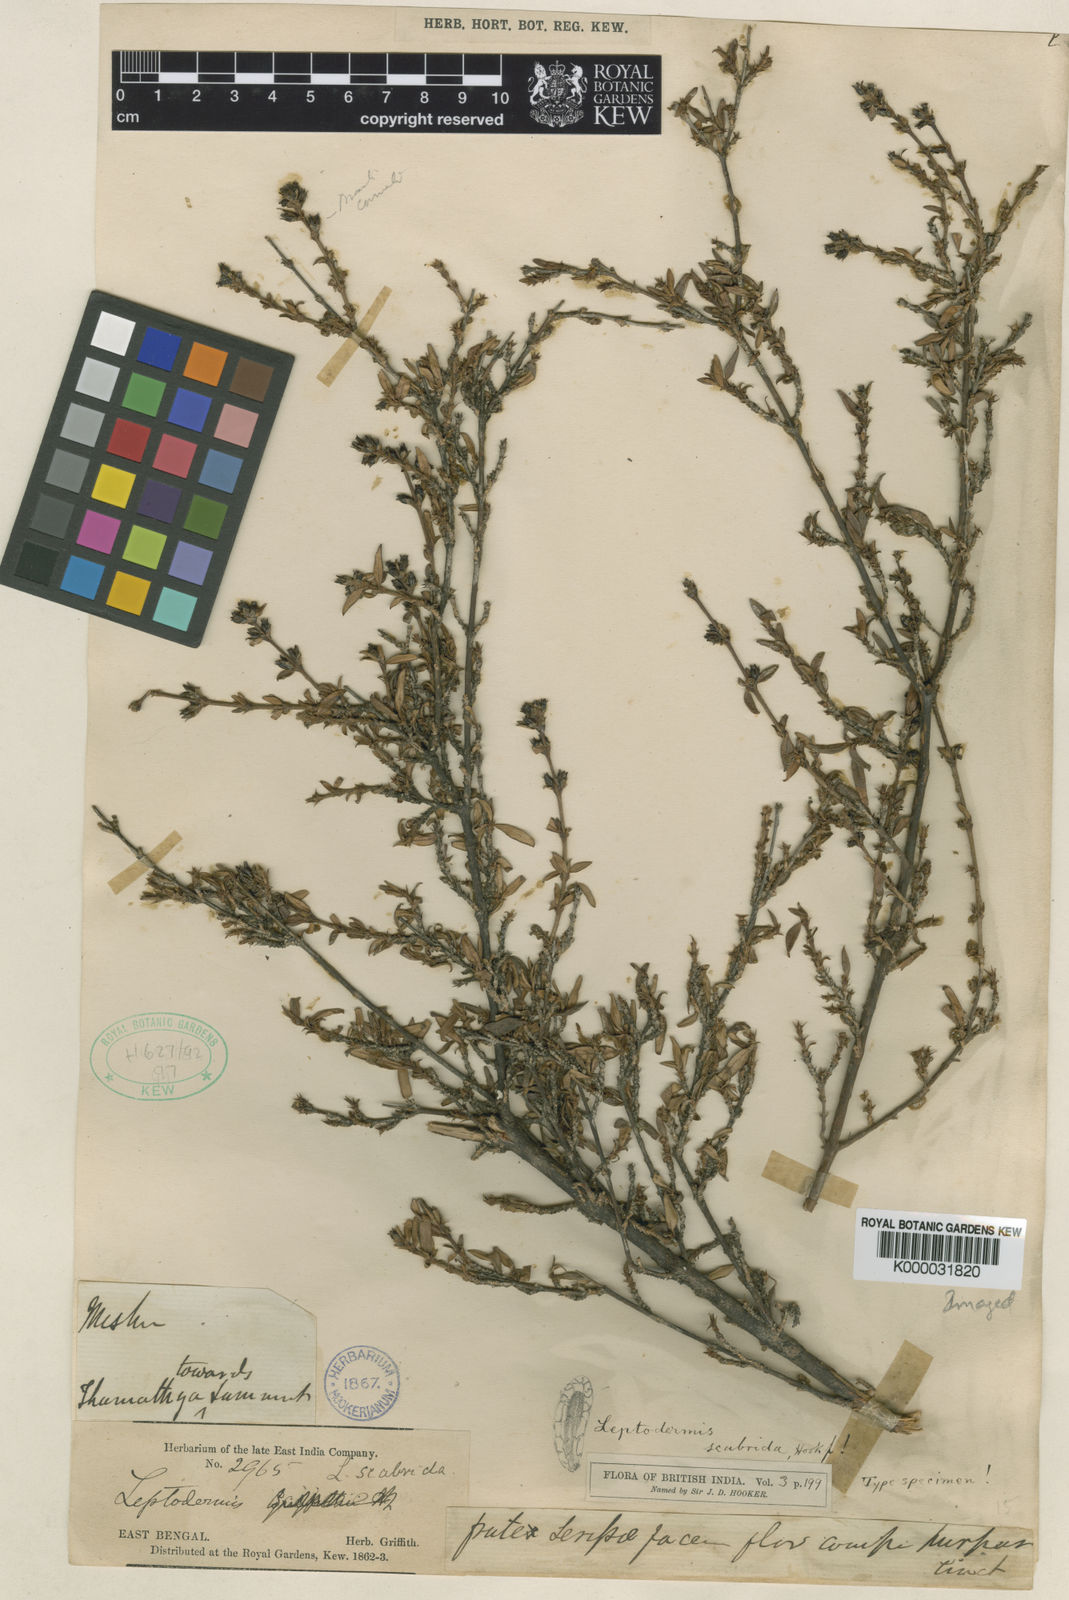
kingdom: Plantae
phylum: Tracheophyta
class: Magnoliopsida
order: Gentianales
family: Rubiaceae
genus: Leptodermis
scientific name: Leptodermis scabrida
